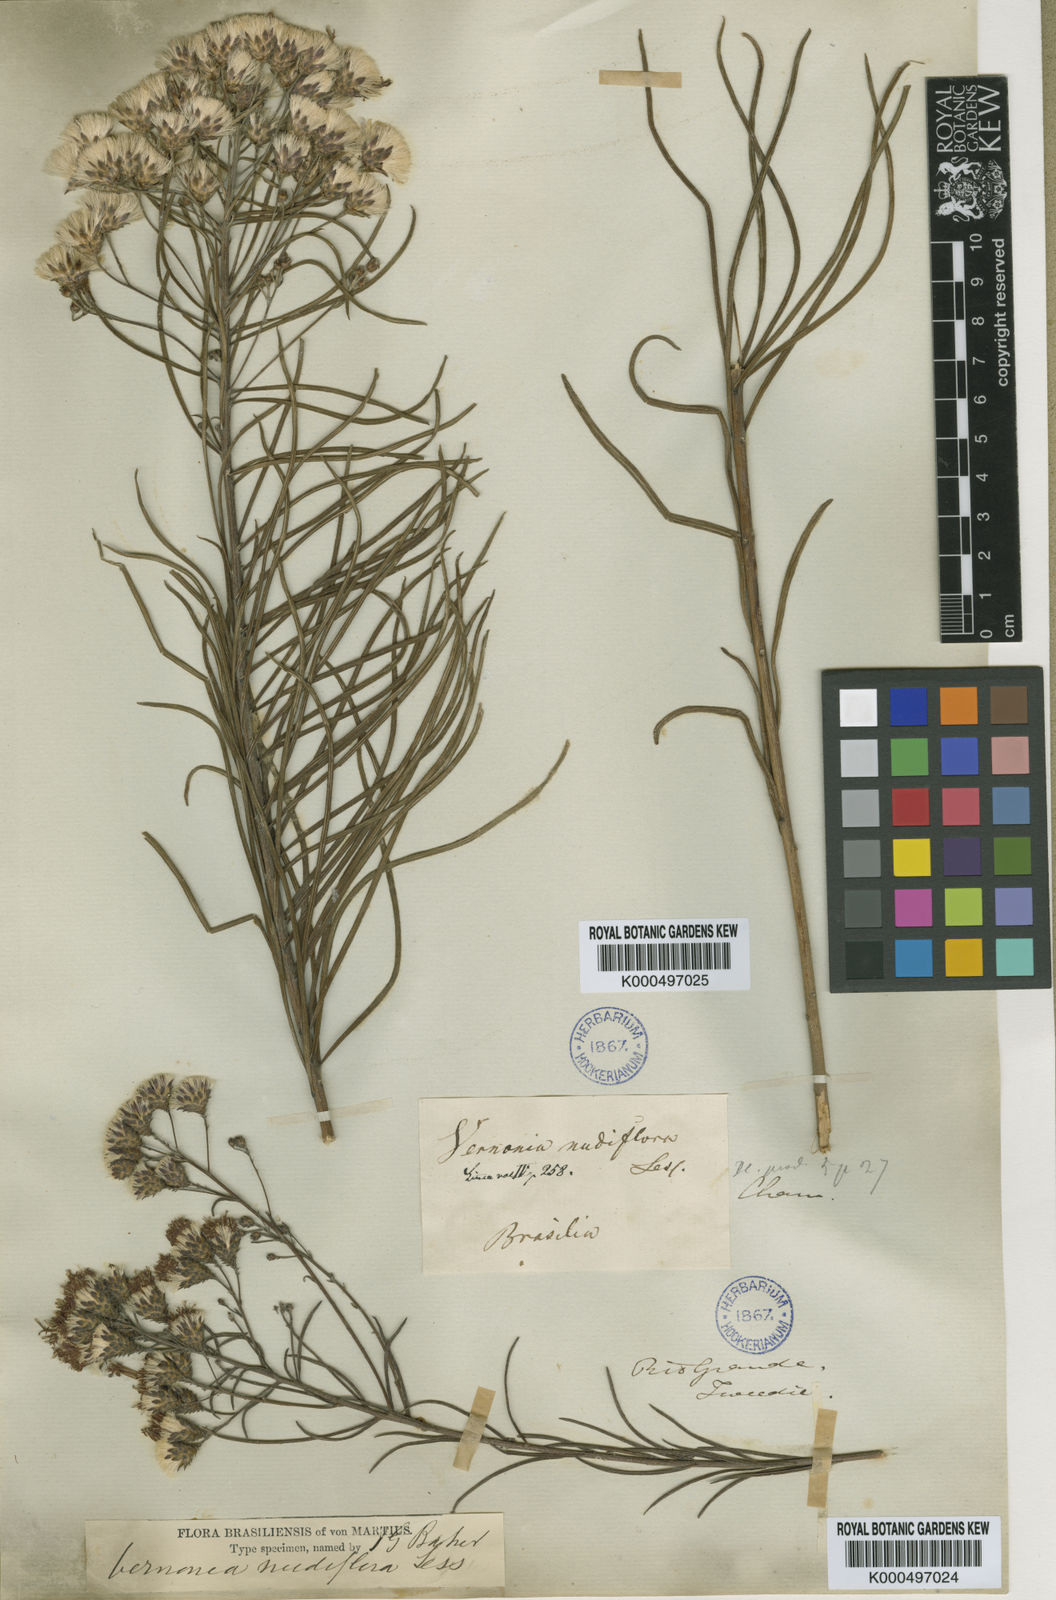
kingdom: Plantae
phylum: Tracheophyta
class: Magnoliopsida
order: Asterales
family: Asteraceae
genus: Vernonanthura
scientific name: Vernonanthura nudiflora
